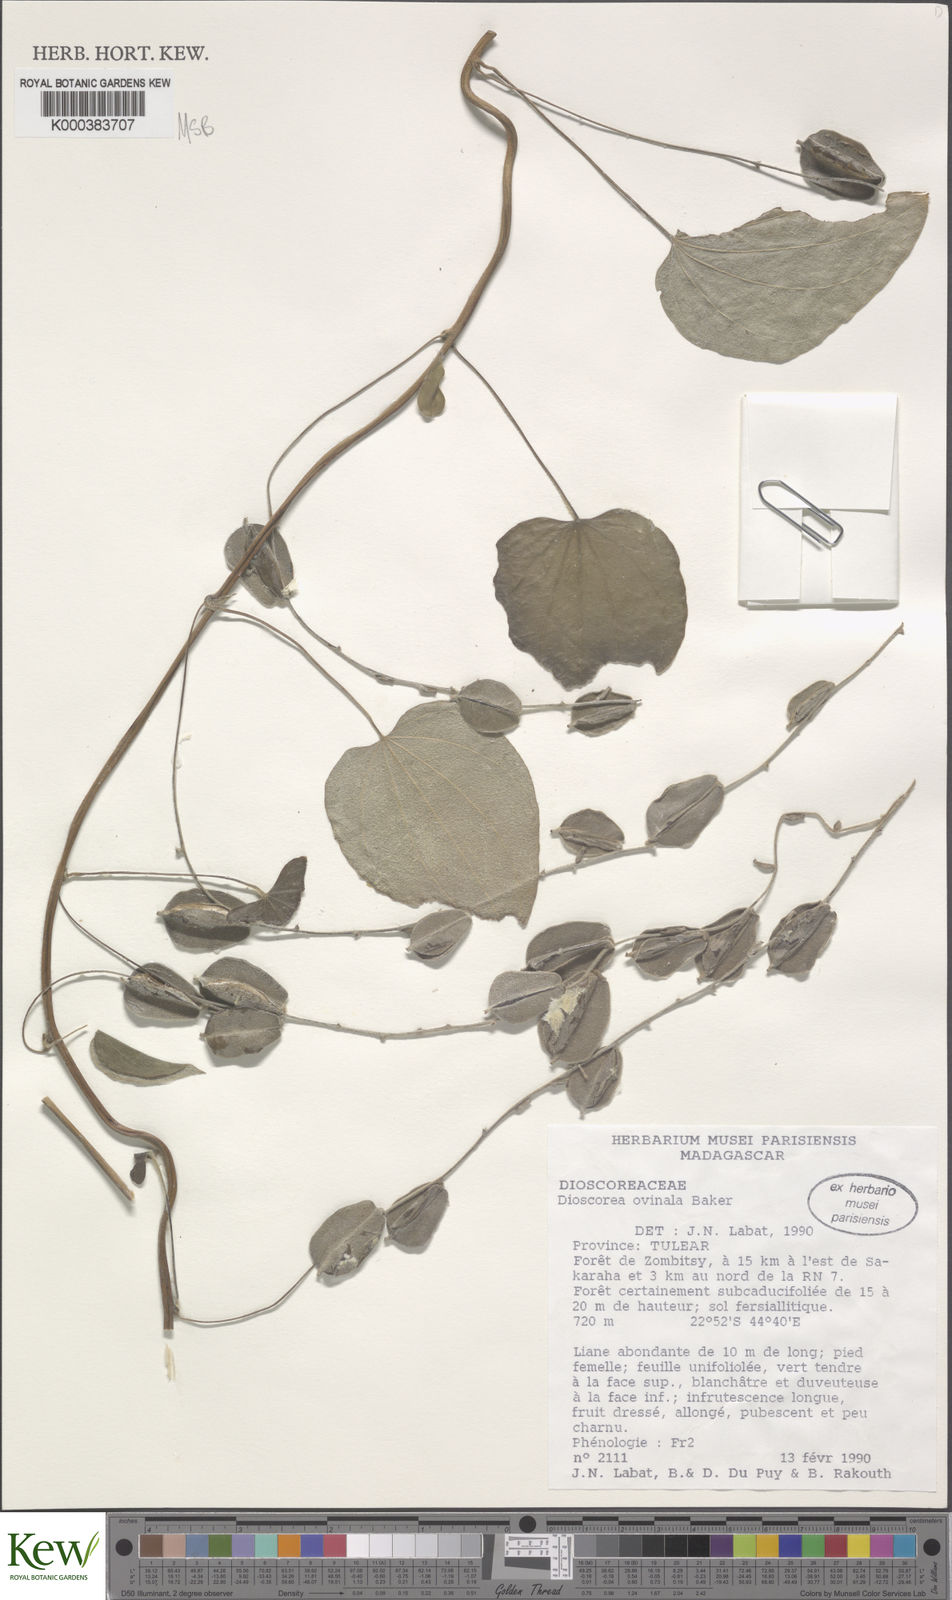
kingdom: Plantae
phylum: Tracheophyta
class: Liliopsida
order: Dioscoreales
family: Dioscoreaceae
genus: Dioscorea
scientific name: Dioscorea ovinala
